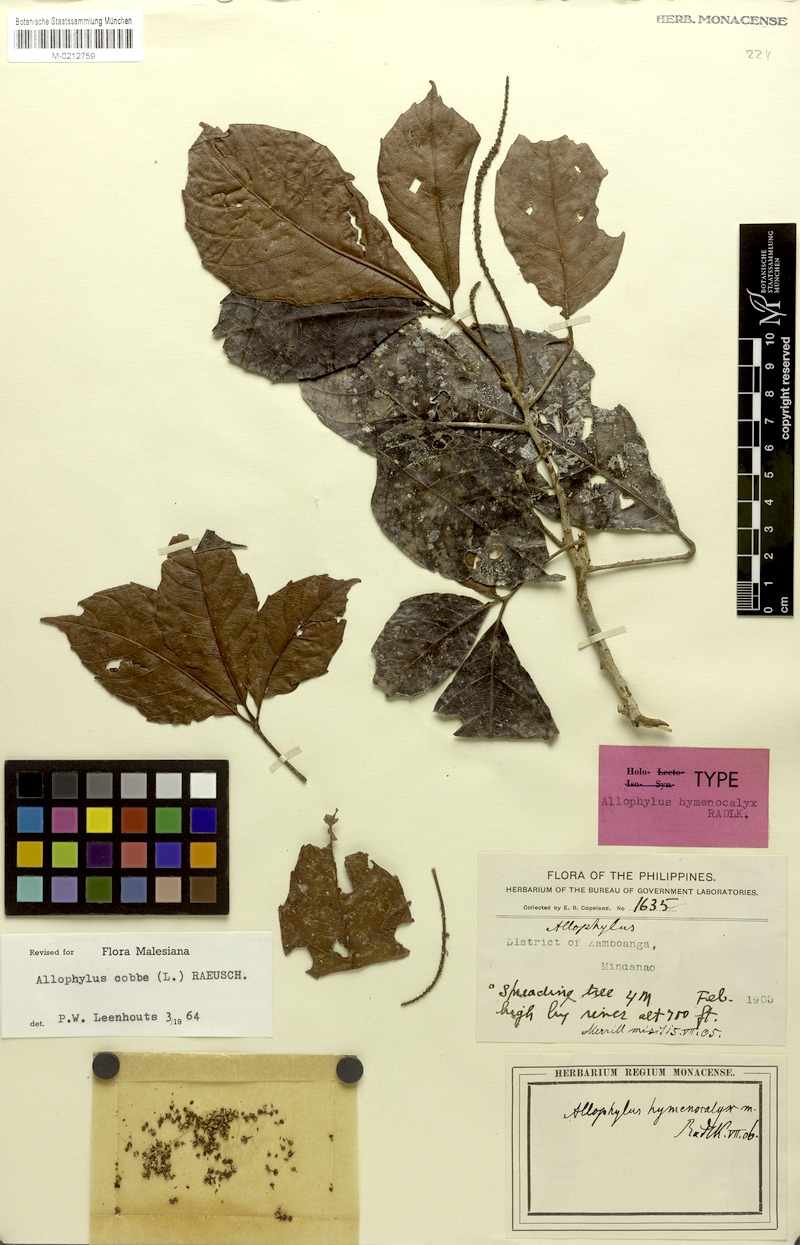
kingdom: Plantae
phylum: Tracheophyta
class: Magnoliopsida
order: Sapindales
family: Sapindaceae
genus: Allophylus
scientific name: Allophylus hymenocalyx
